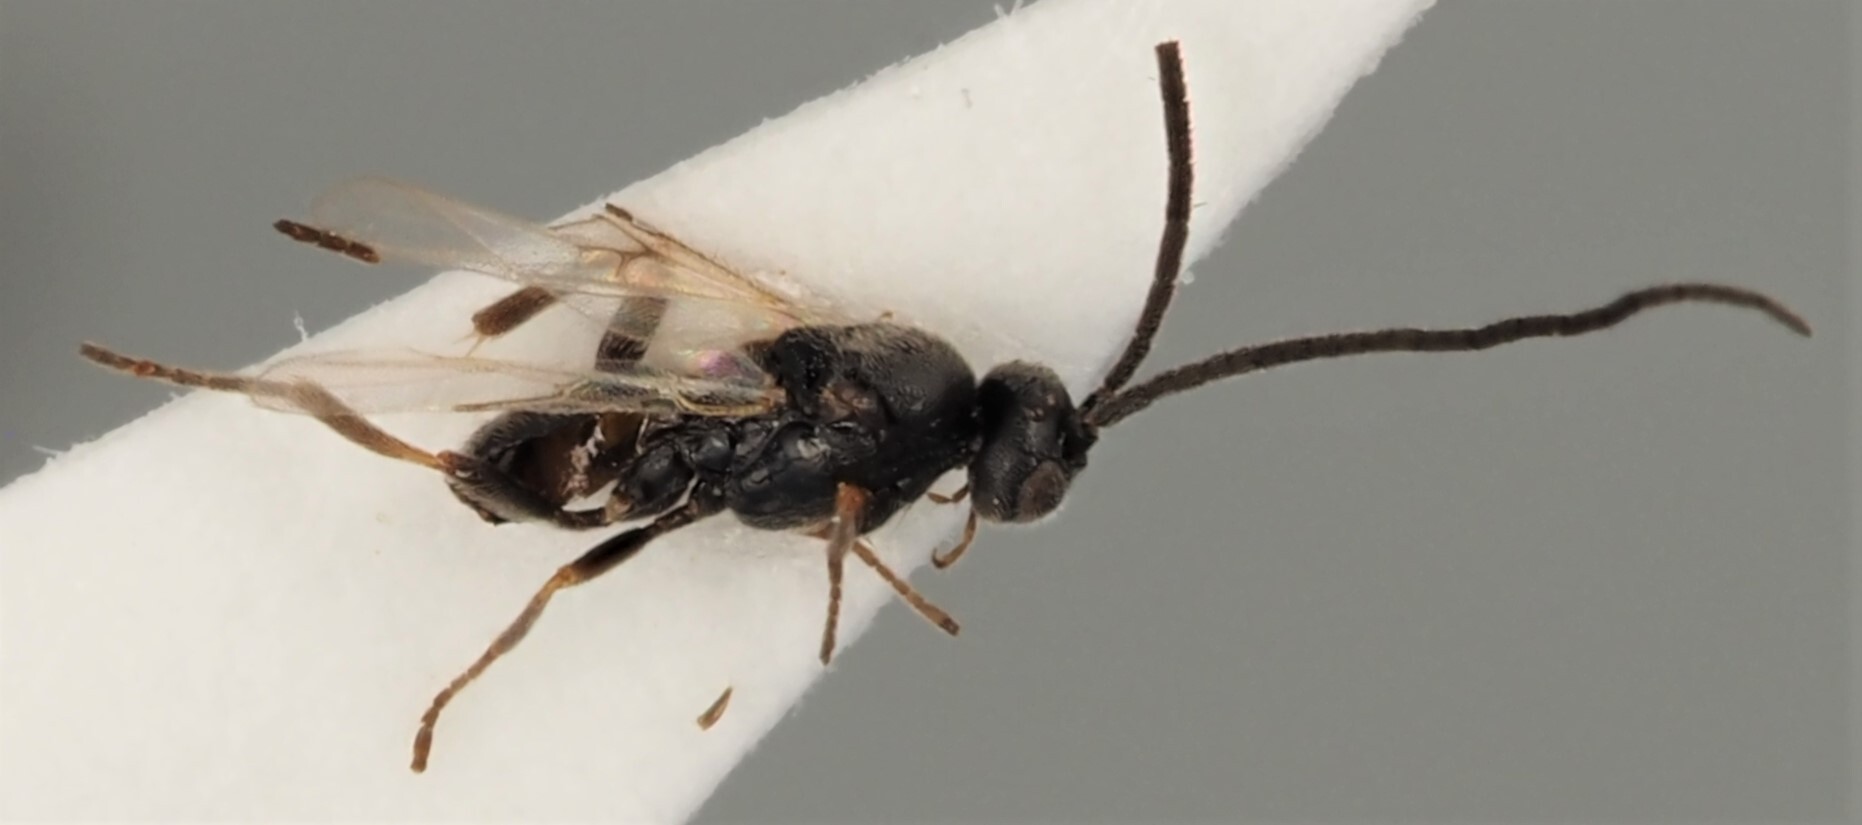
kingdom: Animalia
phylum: Arthropoda
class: Insecta
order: Hymenoptera
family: Braconidae
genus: Deuterixys
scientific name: Deuterixys rimulosa
